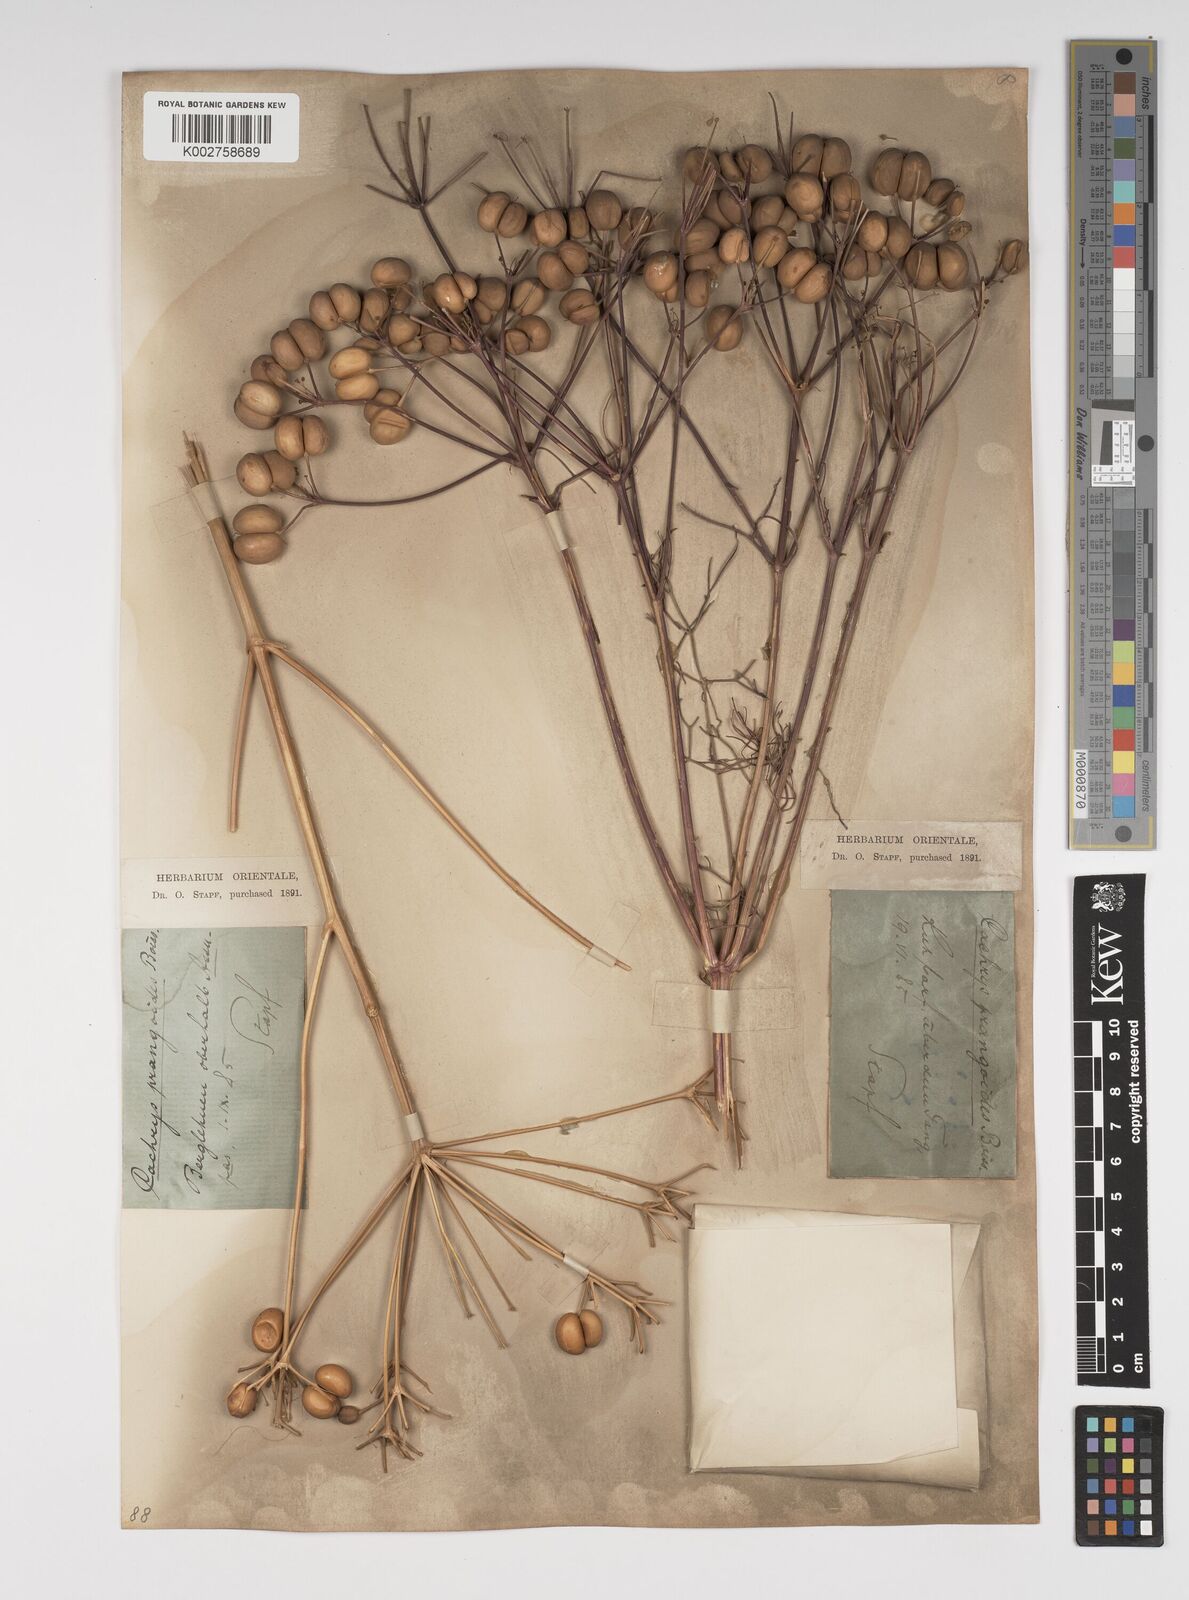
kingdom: Plantae
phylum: Tracheophyta
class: Magnoliopsida
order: Apiales
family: Apiaceae
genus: Prangos
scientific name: Prangos ferulacea
